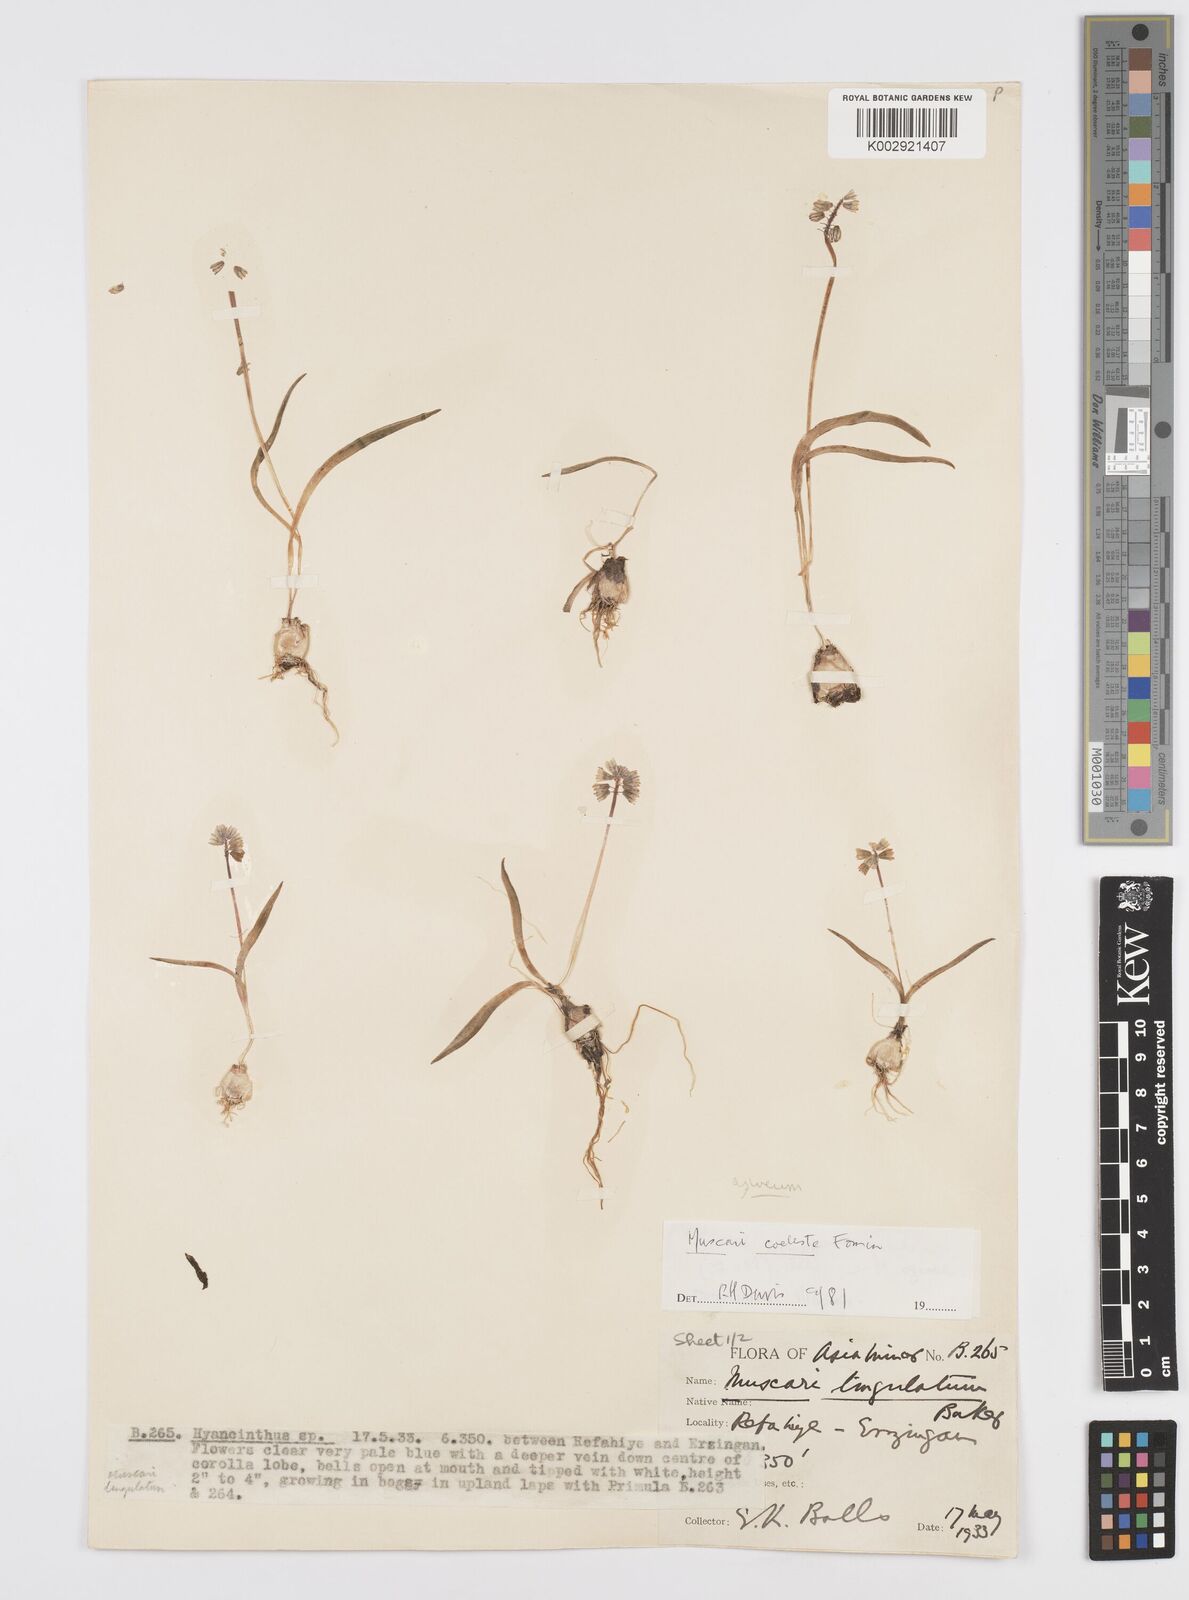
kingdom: Plantae
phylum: Tracheophyta
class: Liliopsida
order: Asparagales
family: Asparagaceae
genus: Muscari
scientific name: Muscari coeleste
